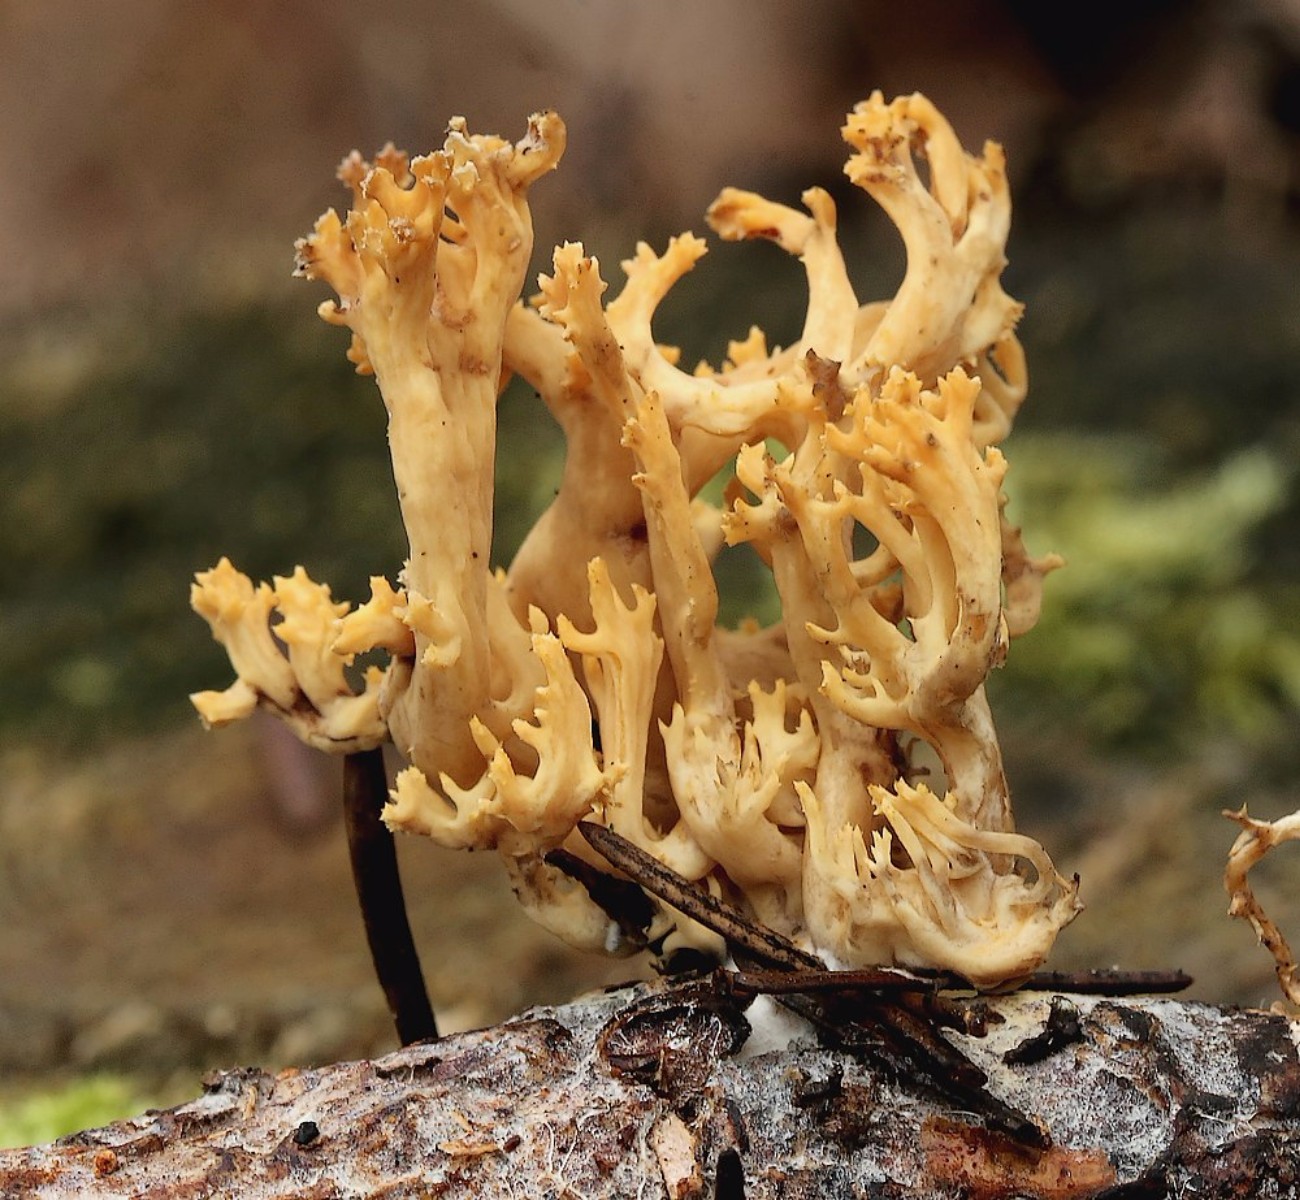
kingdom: Fungi
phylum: Basidiomycota
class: Agaricomycetes
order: Gomphales
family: Gomphaceae
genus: Phaeoclavulina
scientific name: Phaeoclavulina
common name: koralsvamp
